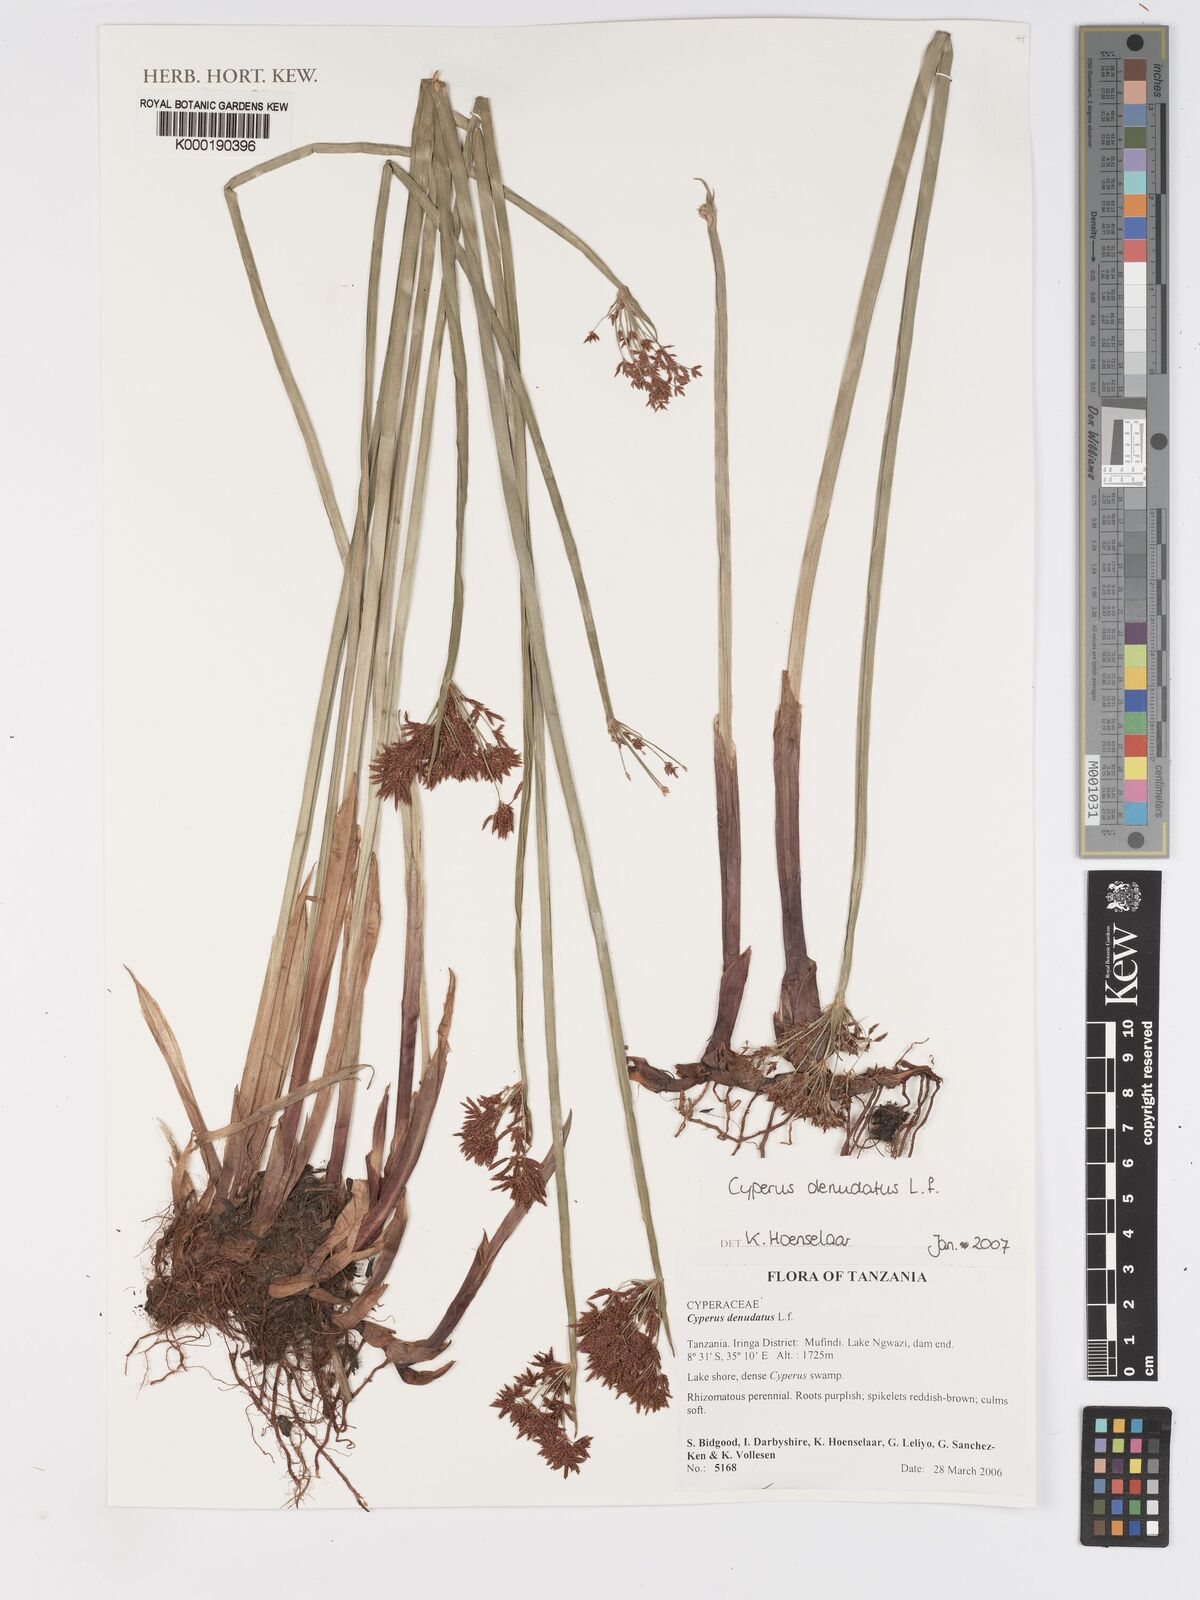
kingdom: Plantae
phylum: Tracheophyta
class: Liliopsida
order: Poales
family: Cyperaceae
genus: Cyperus
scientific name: Cyperus denudatus
